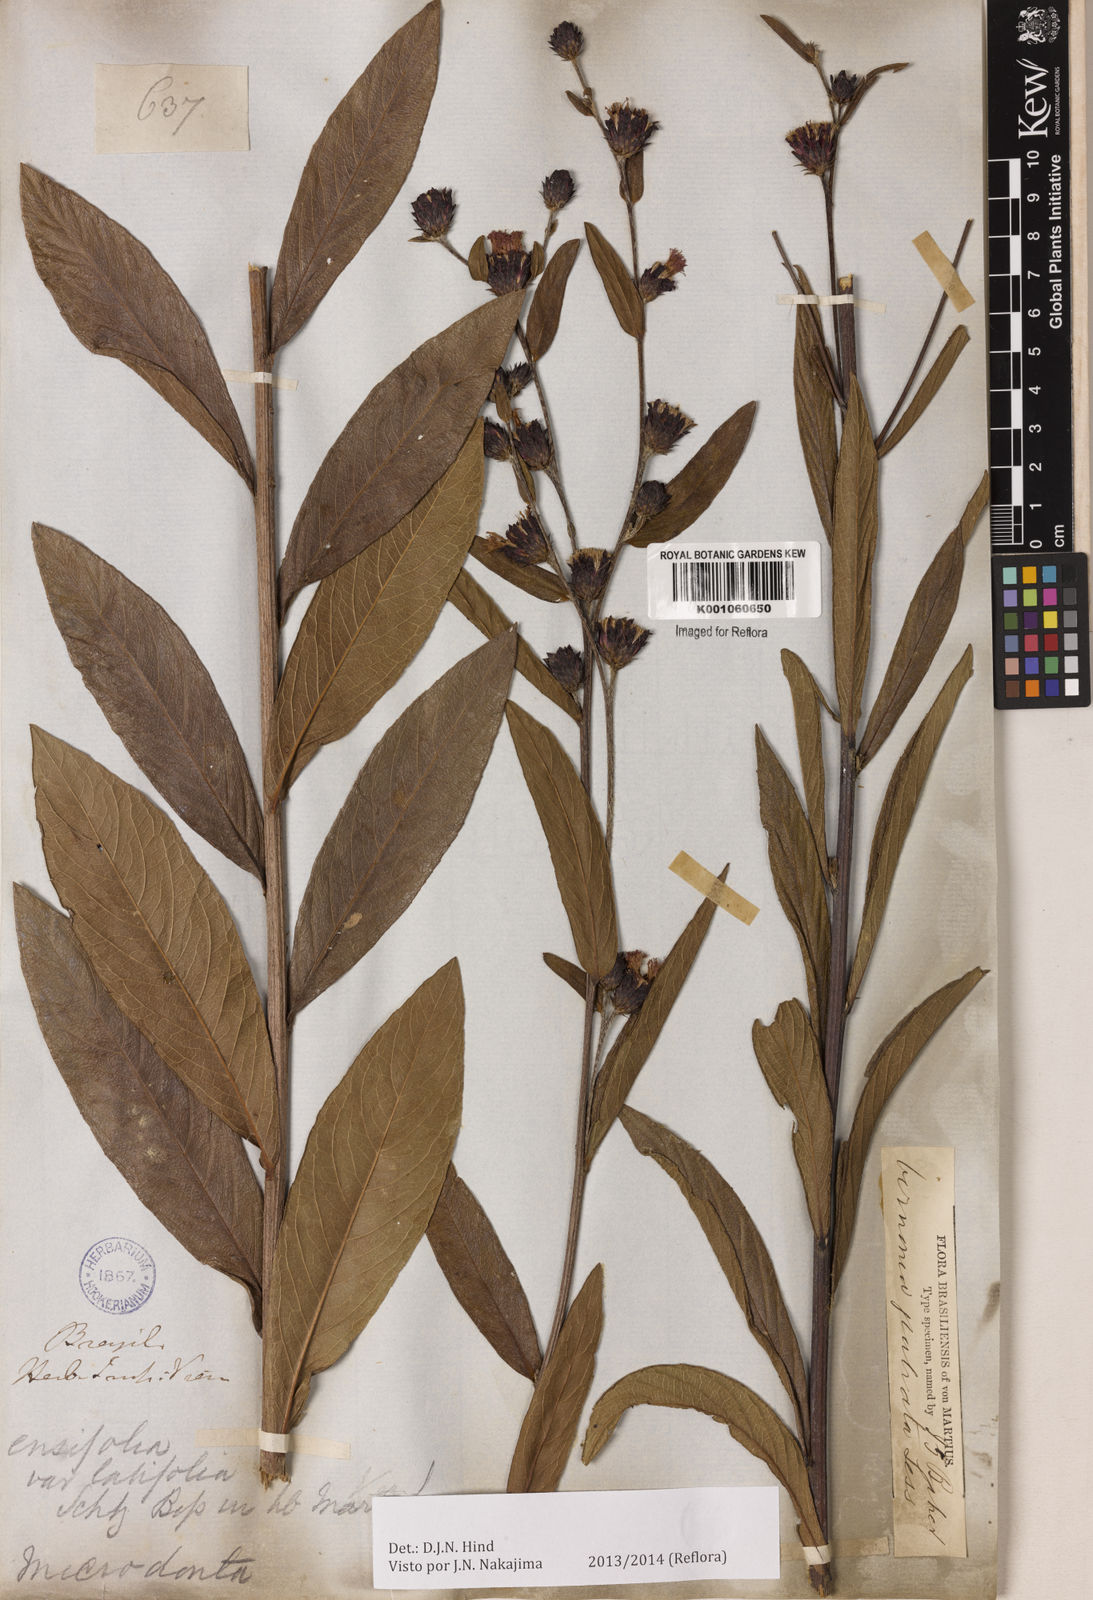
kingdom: Plantae
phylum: Tracheophyta
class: Magnoliopsida
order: Asterales
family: Asteraceae
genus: Lessingianthus
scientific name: Lessingianthus glabratus
